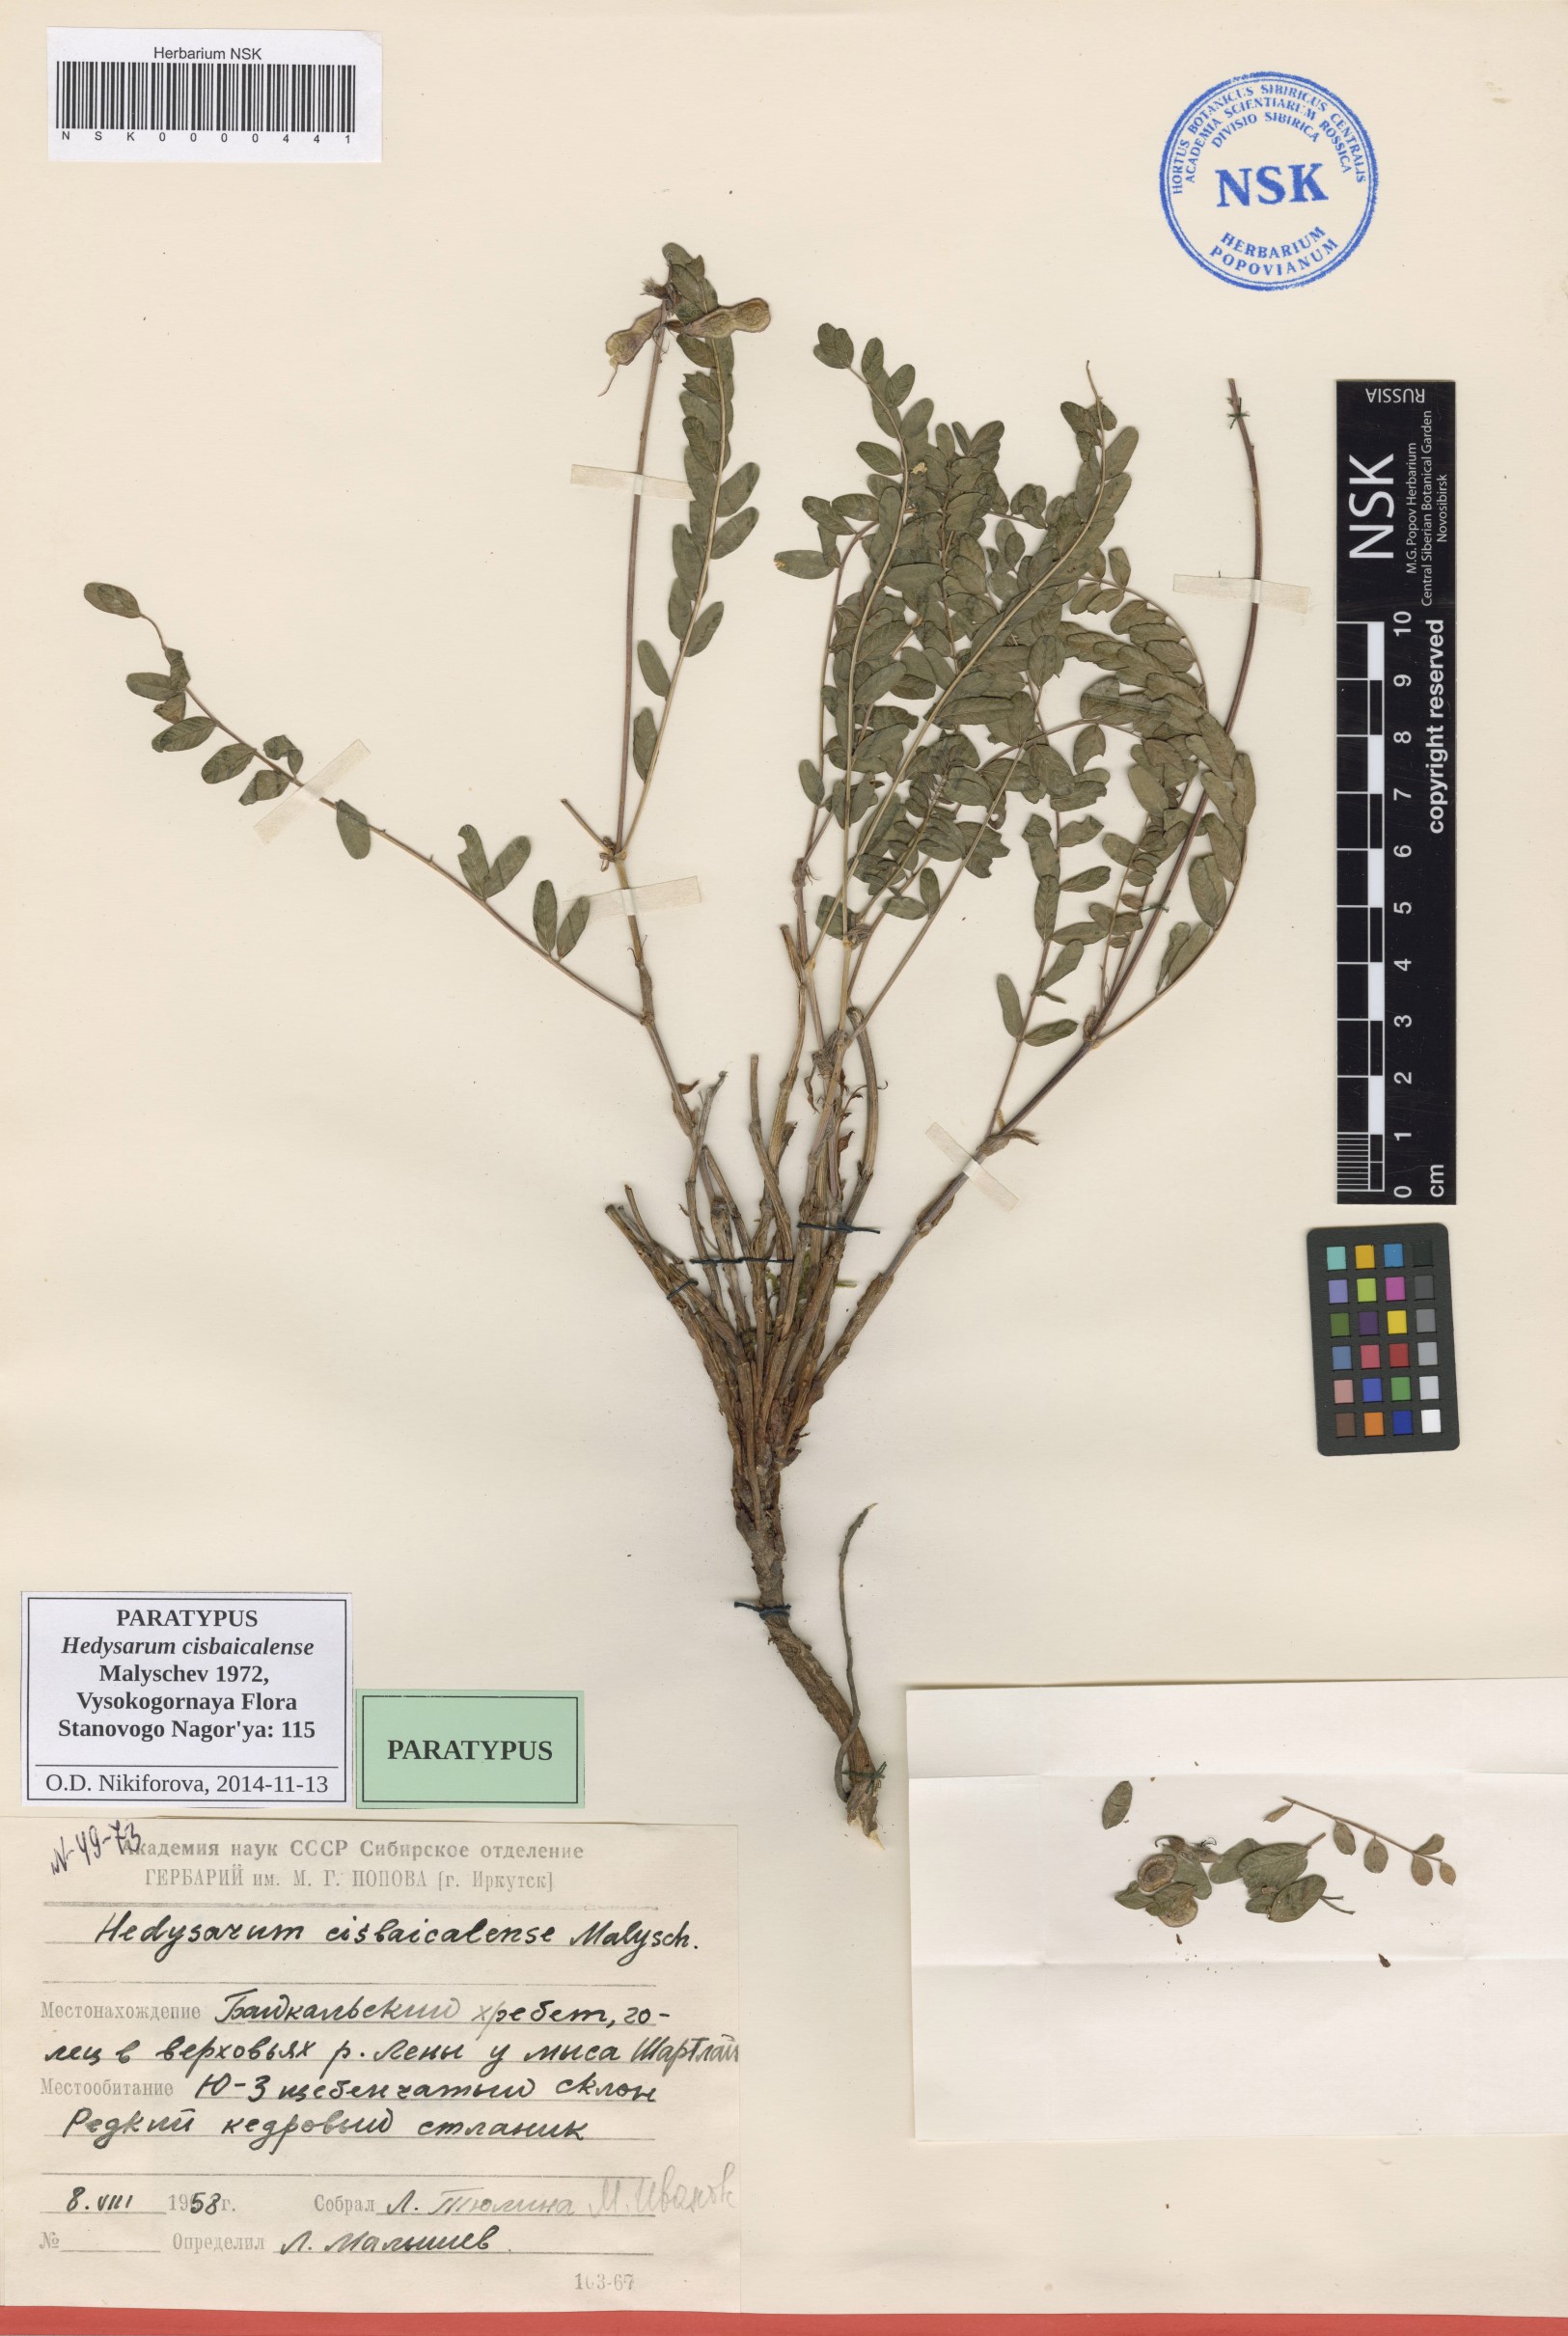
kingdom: Plantae
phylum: Tracheophyta
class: Magnoliopsida
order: Fabales
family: Fabaceae
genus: Hedysarum
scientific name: Hedysarum cisbaicalense
